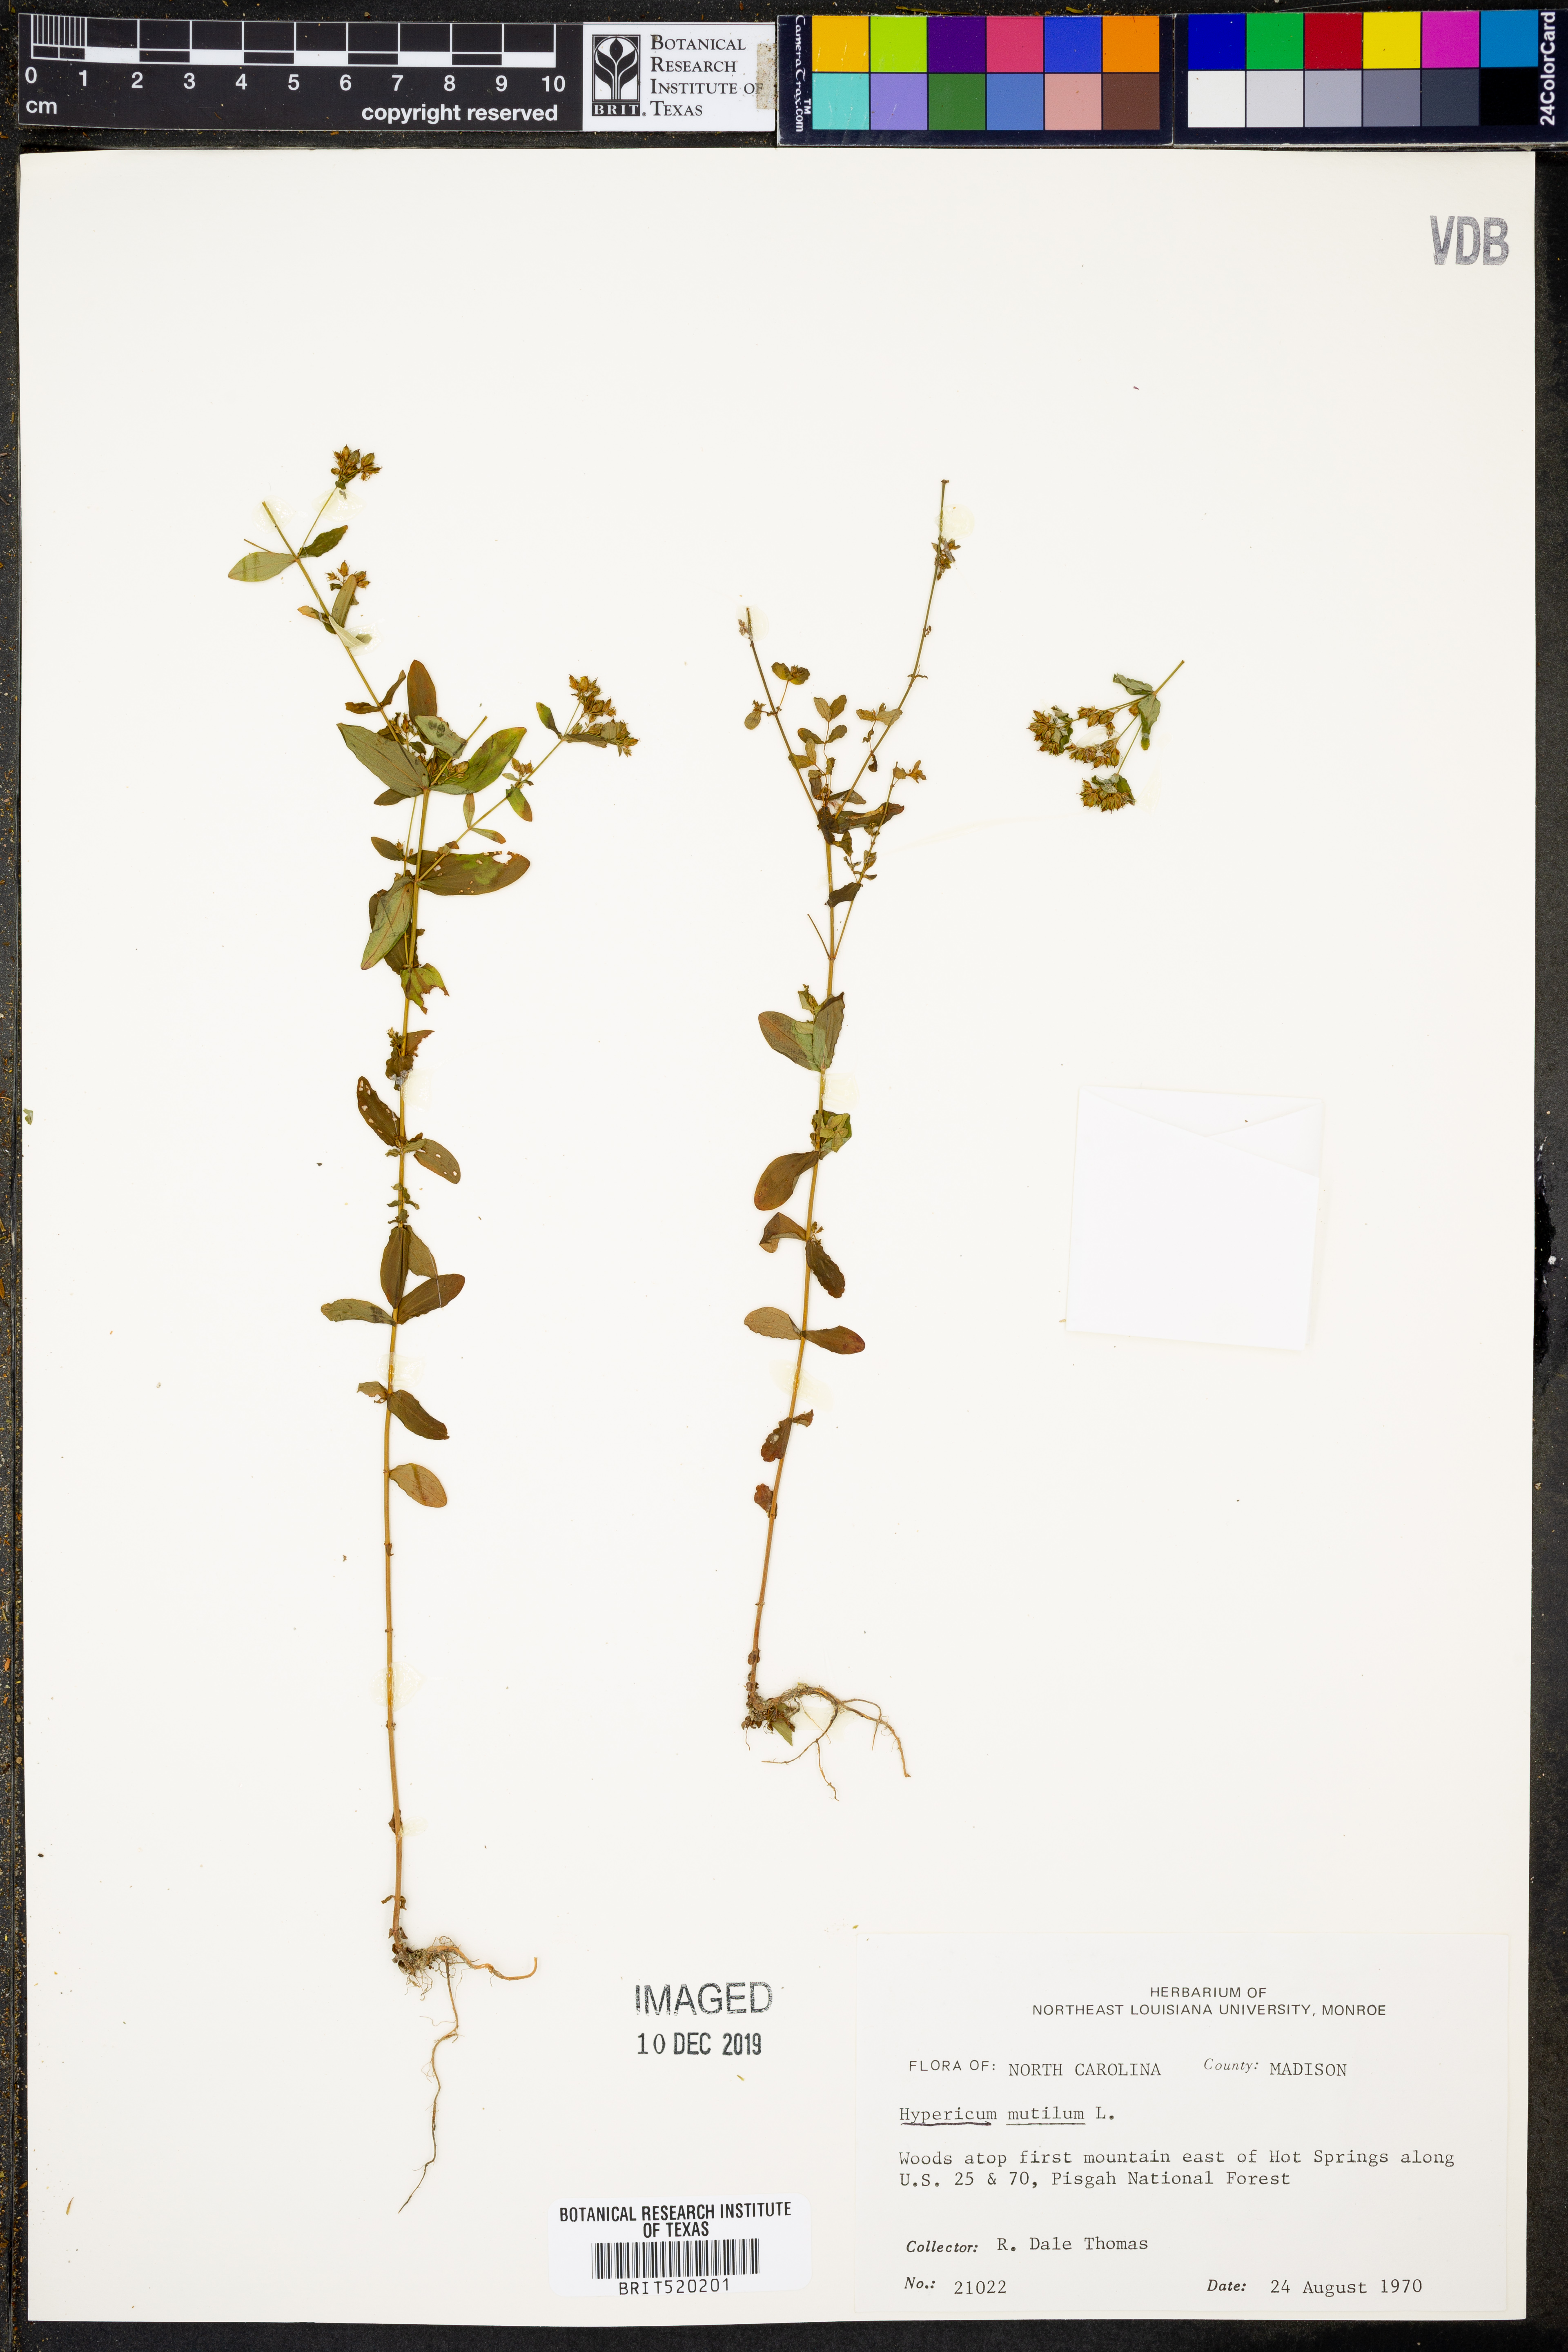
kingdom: Plantae
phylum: Tracheophyta
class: Magnoliopsida
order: Malpighiales
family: Hypericaceae
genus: Hypericum
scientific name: Hypericum mutilum
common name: Dwarf st. john's-wort
